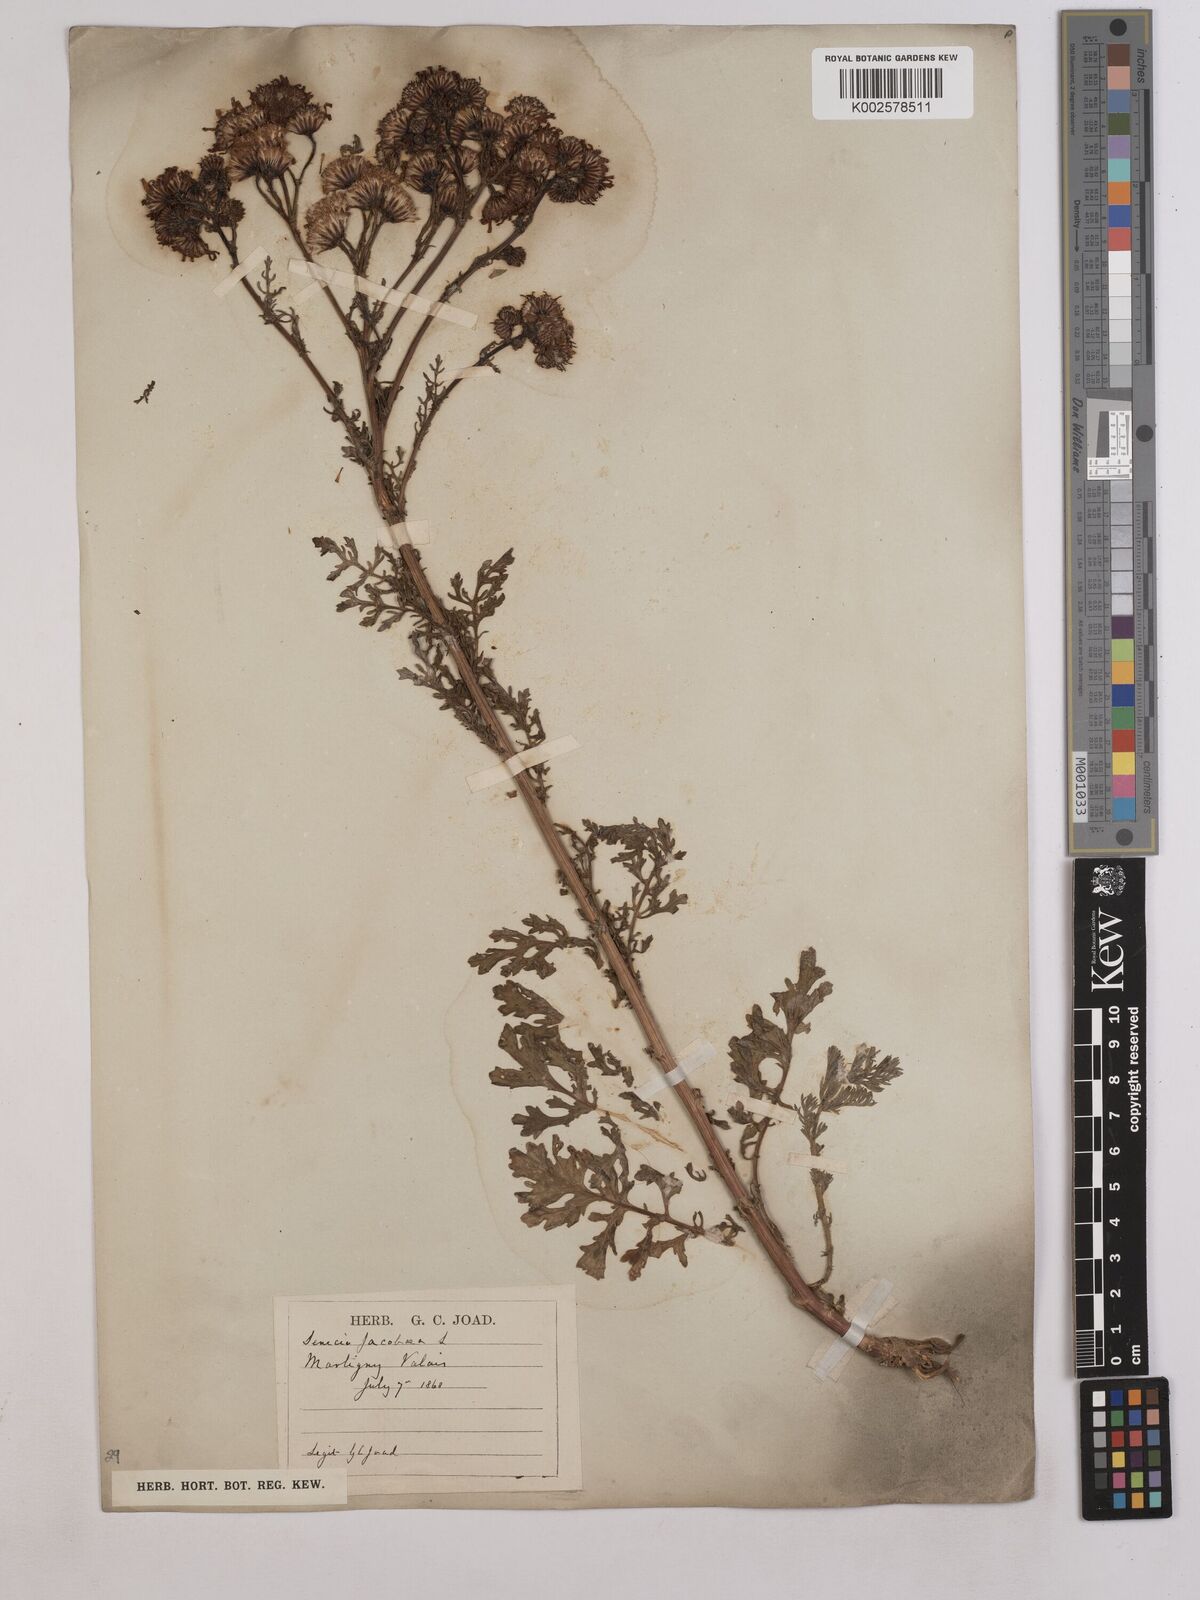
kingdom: Plantae
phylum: Tracheophyta
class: Magnoliopsida
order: Asterales
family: Asteraceae
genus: Jacobaea
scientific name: Jacobaea vulgaris
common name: Stinking willie
